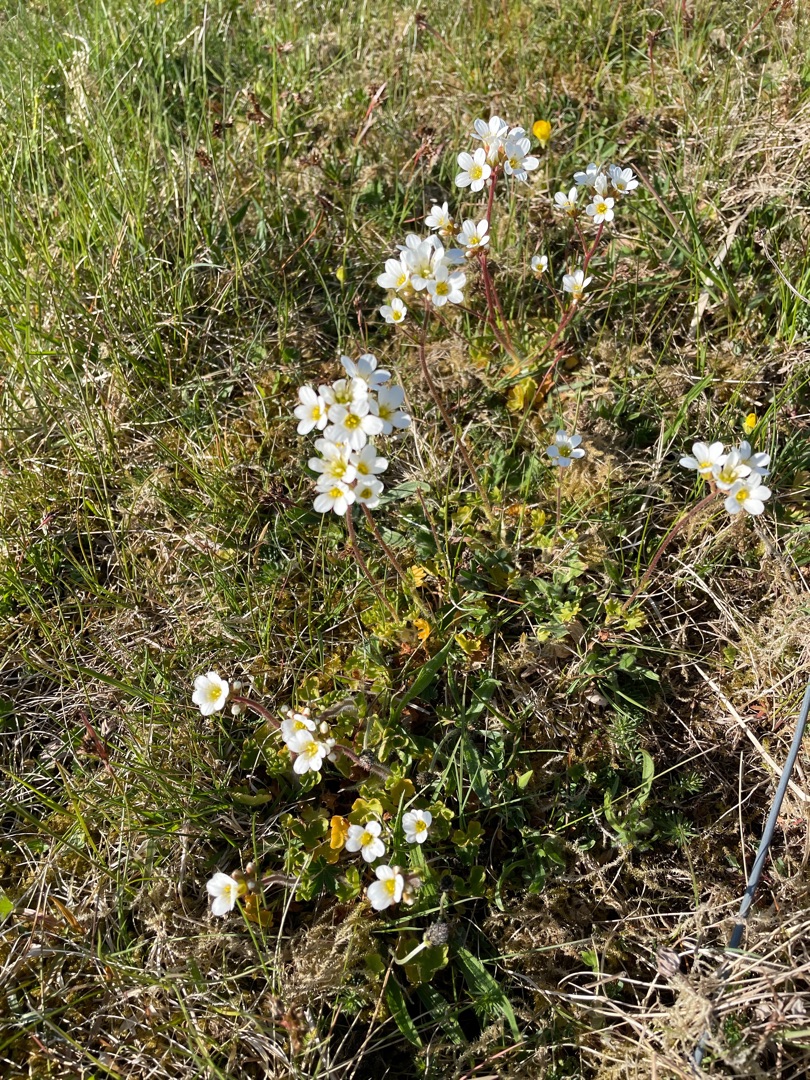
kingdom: Plantae
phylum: Tracheophyta
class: Magnoliopsida
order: Saxifragales
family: Saxifragaceae
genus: Saxifraga
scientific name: Saxifraga granulata
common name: Kornet stenbræk
